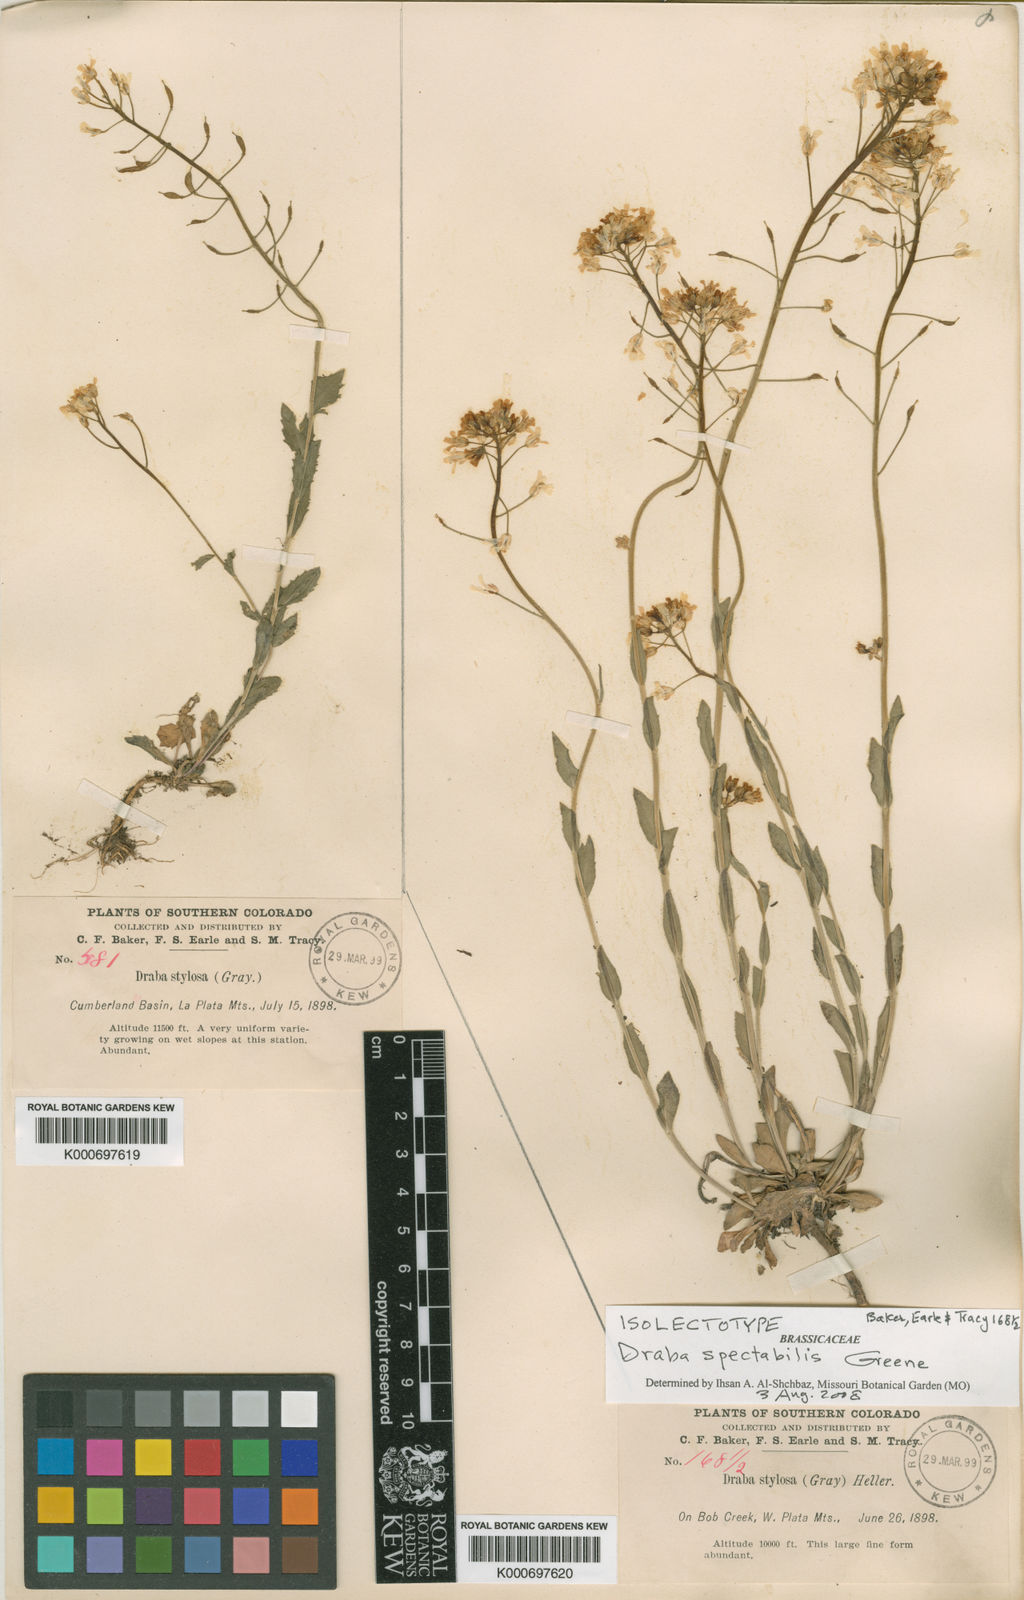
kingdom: Plantae
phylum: Tracheophyta
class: Magnoliopsida
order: Brassicales
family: Brassicaceae
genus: Draba
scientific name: Draba spectabilis
